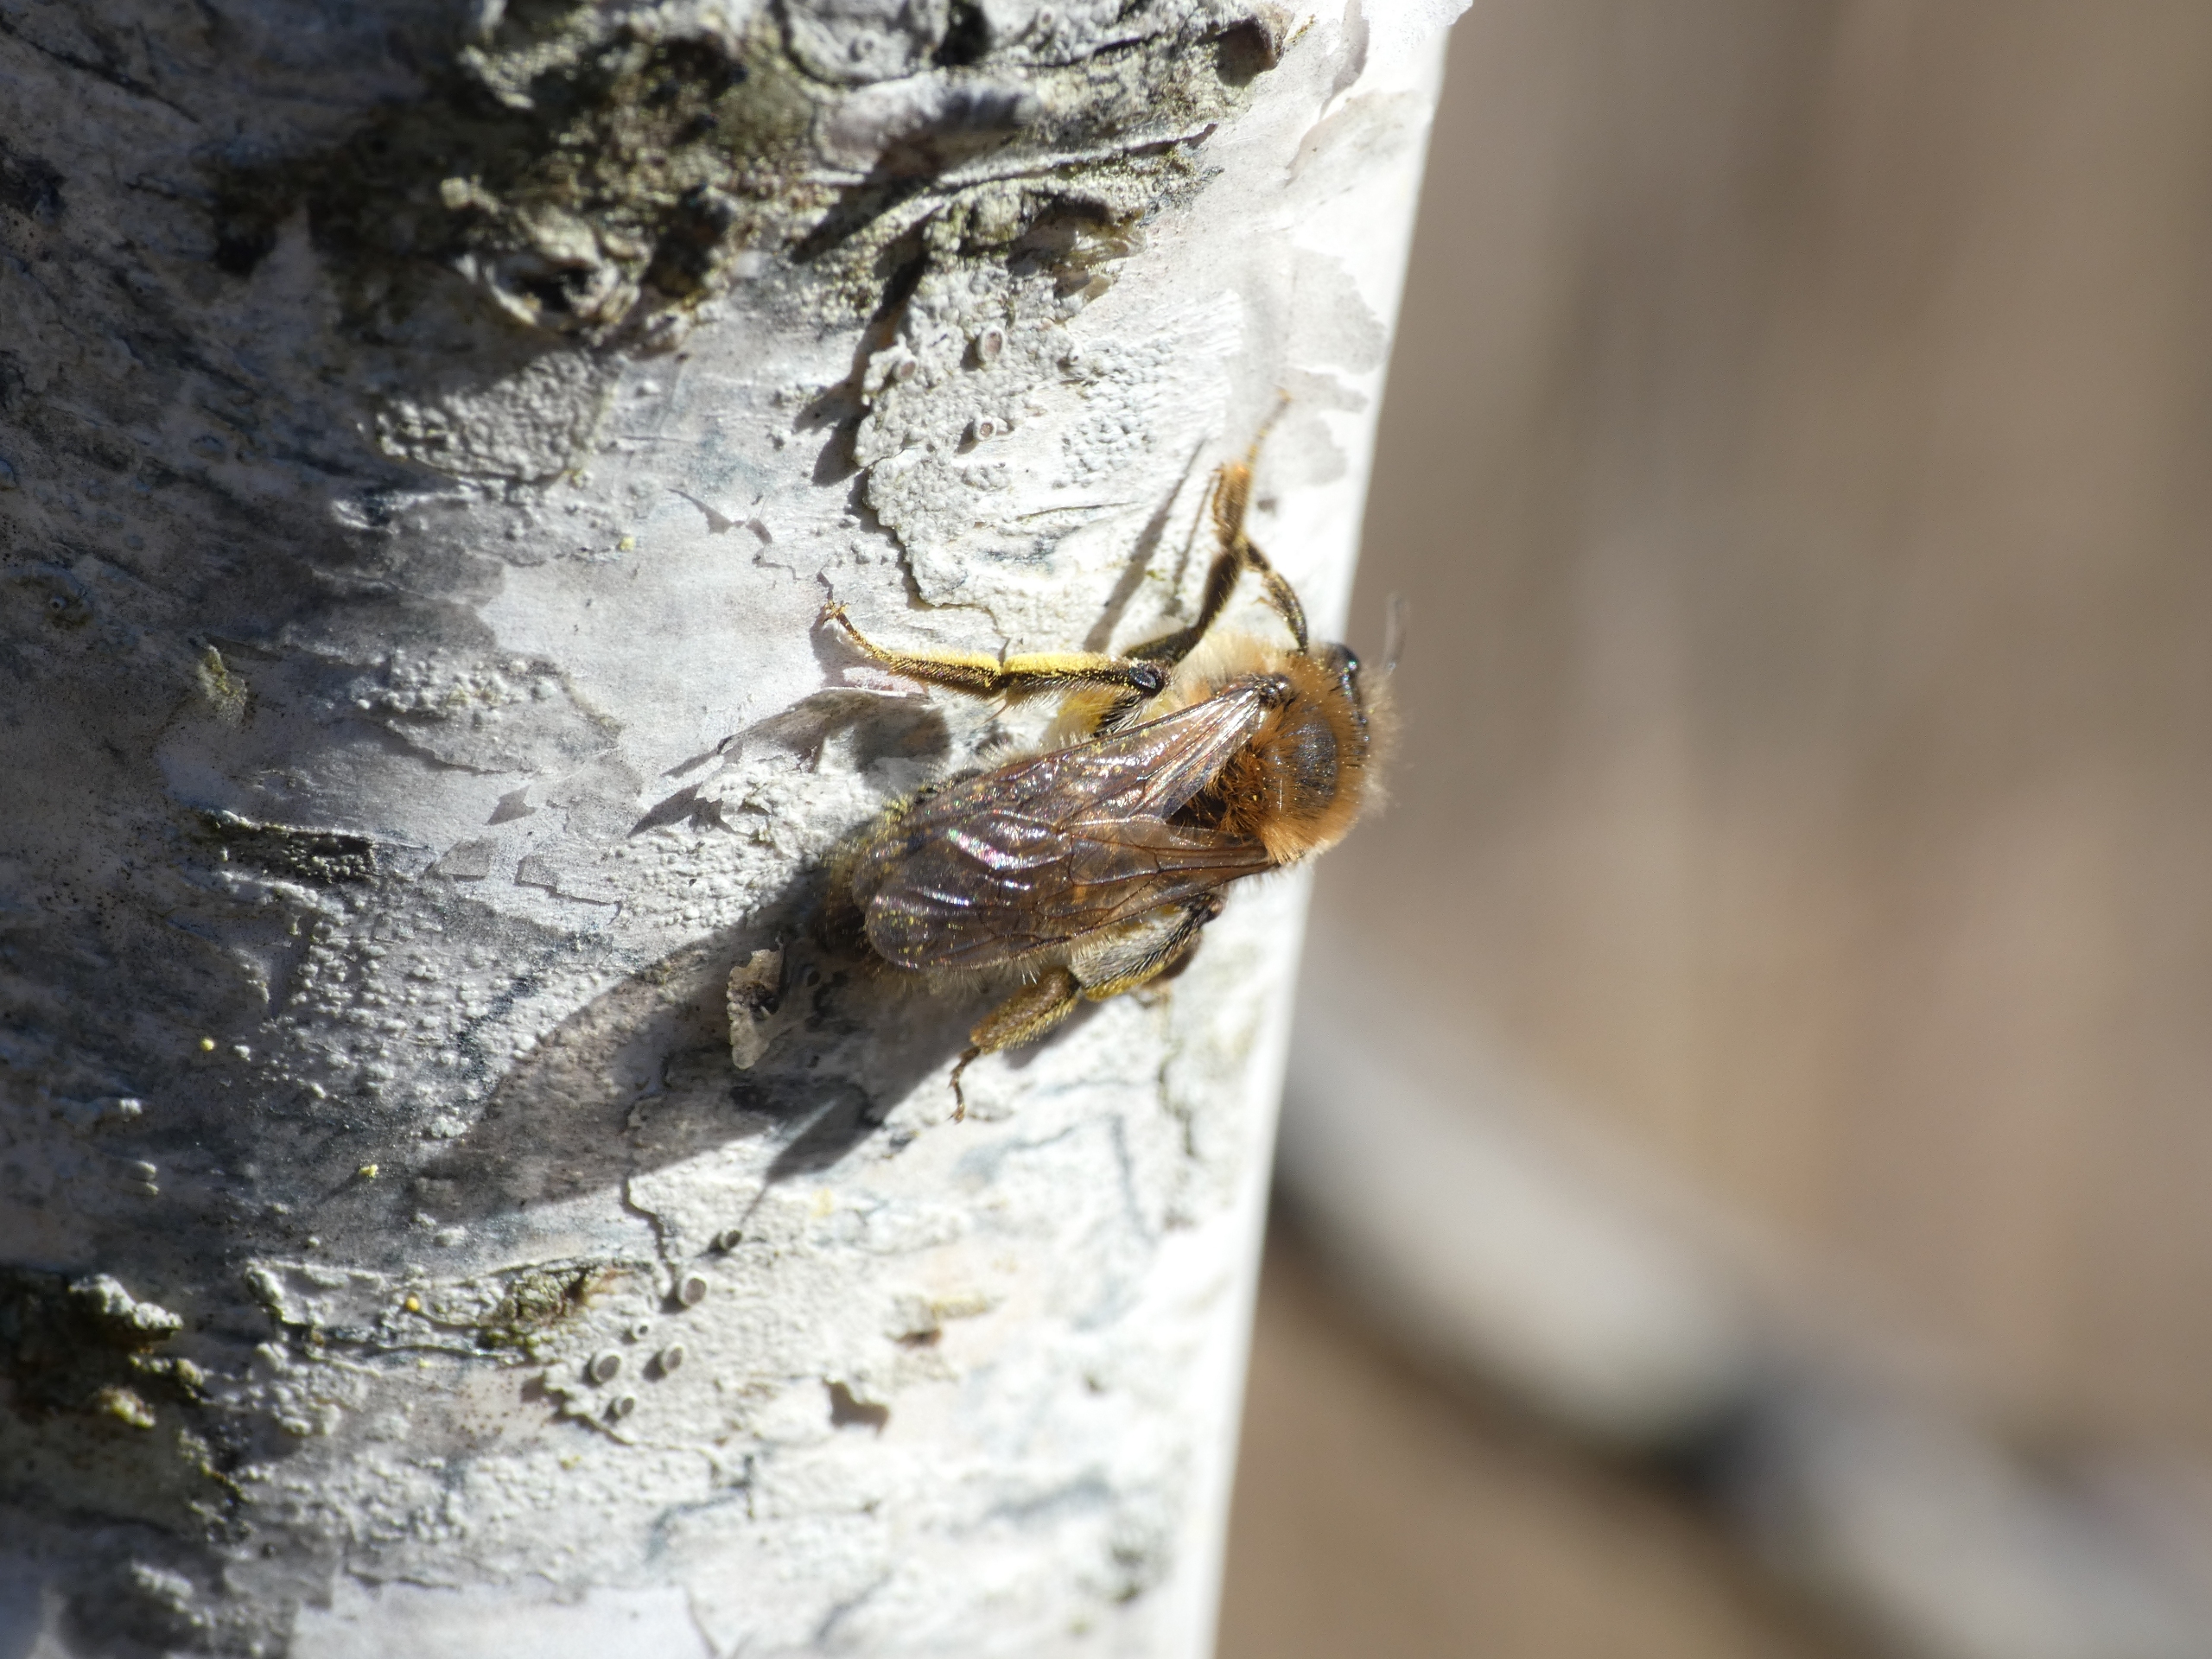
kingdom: Animalia
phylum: Arthropoda
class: Insecta
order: Hymenoptera
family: Andrenidae
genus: Andrena
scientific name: Andrena
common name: Jordbier
